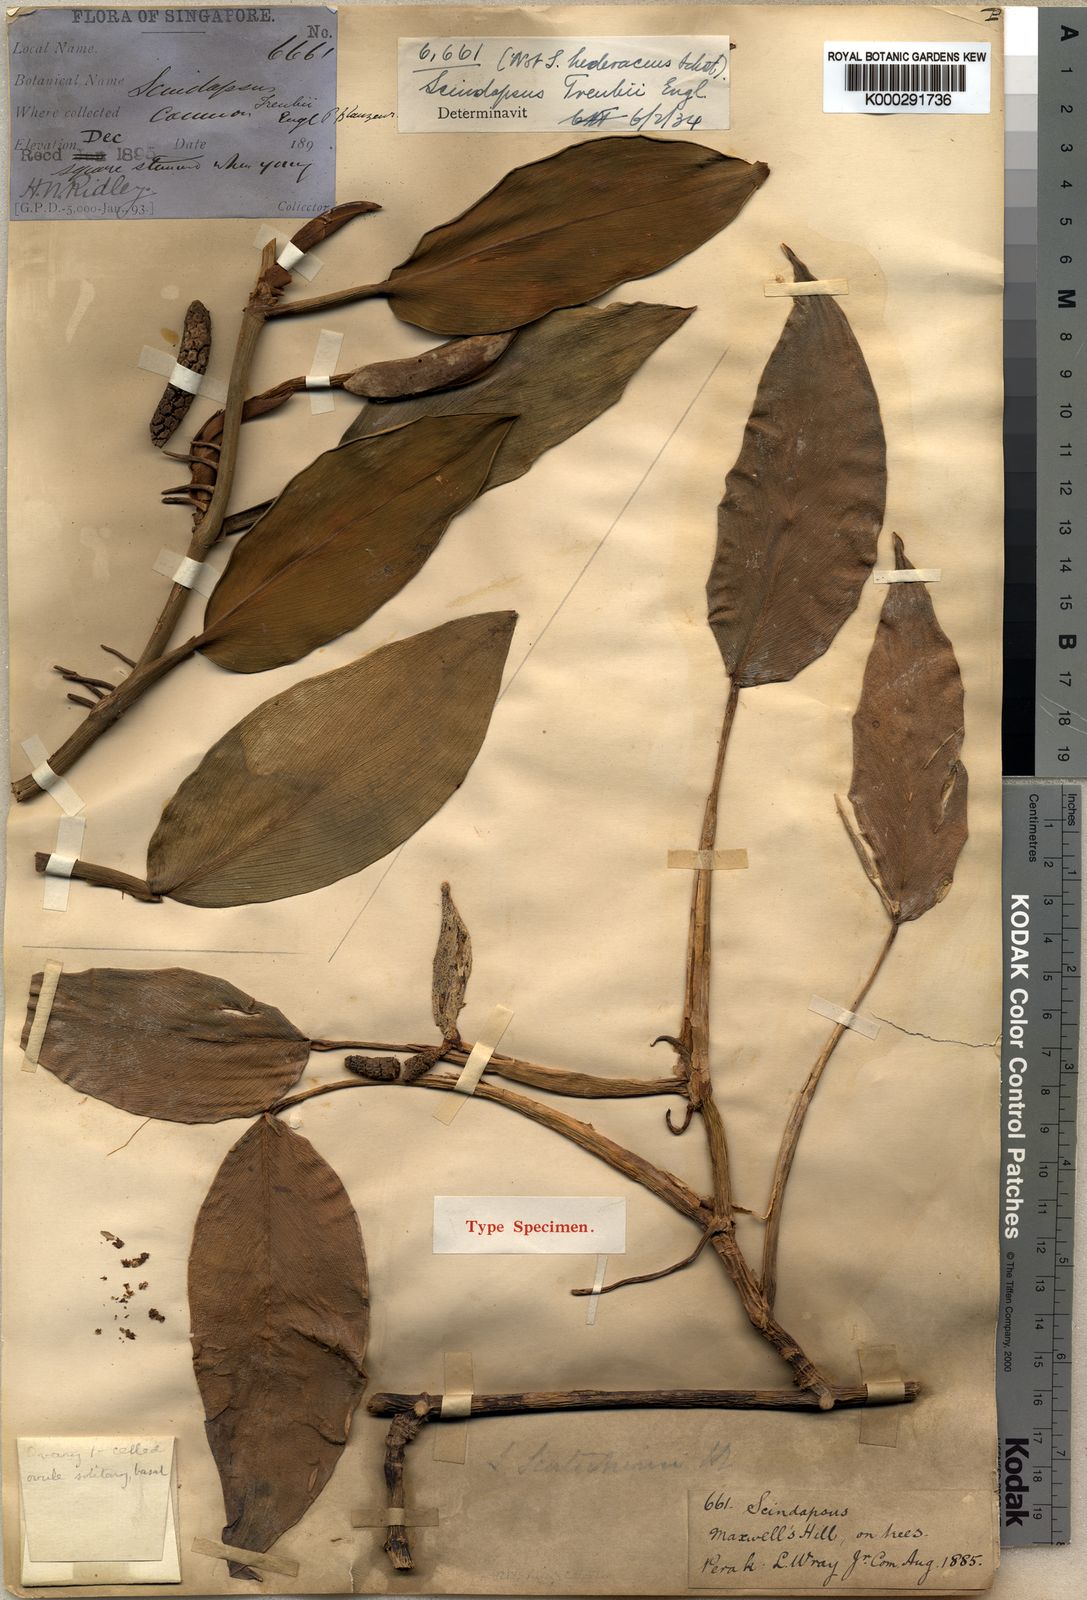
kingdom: Plantae
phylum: Tracheophyta
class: Liliopsida
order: Alismatales
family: Araceae
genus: Scindapsus
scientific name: Scindapsus scortechinii
